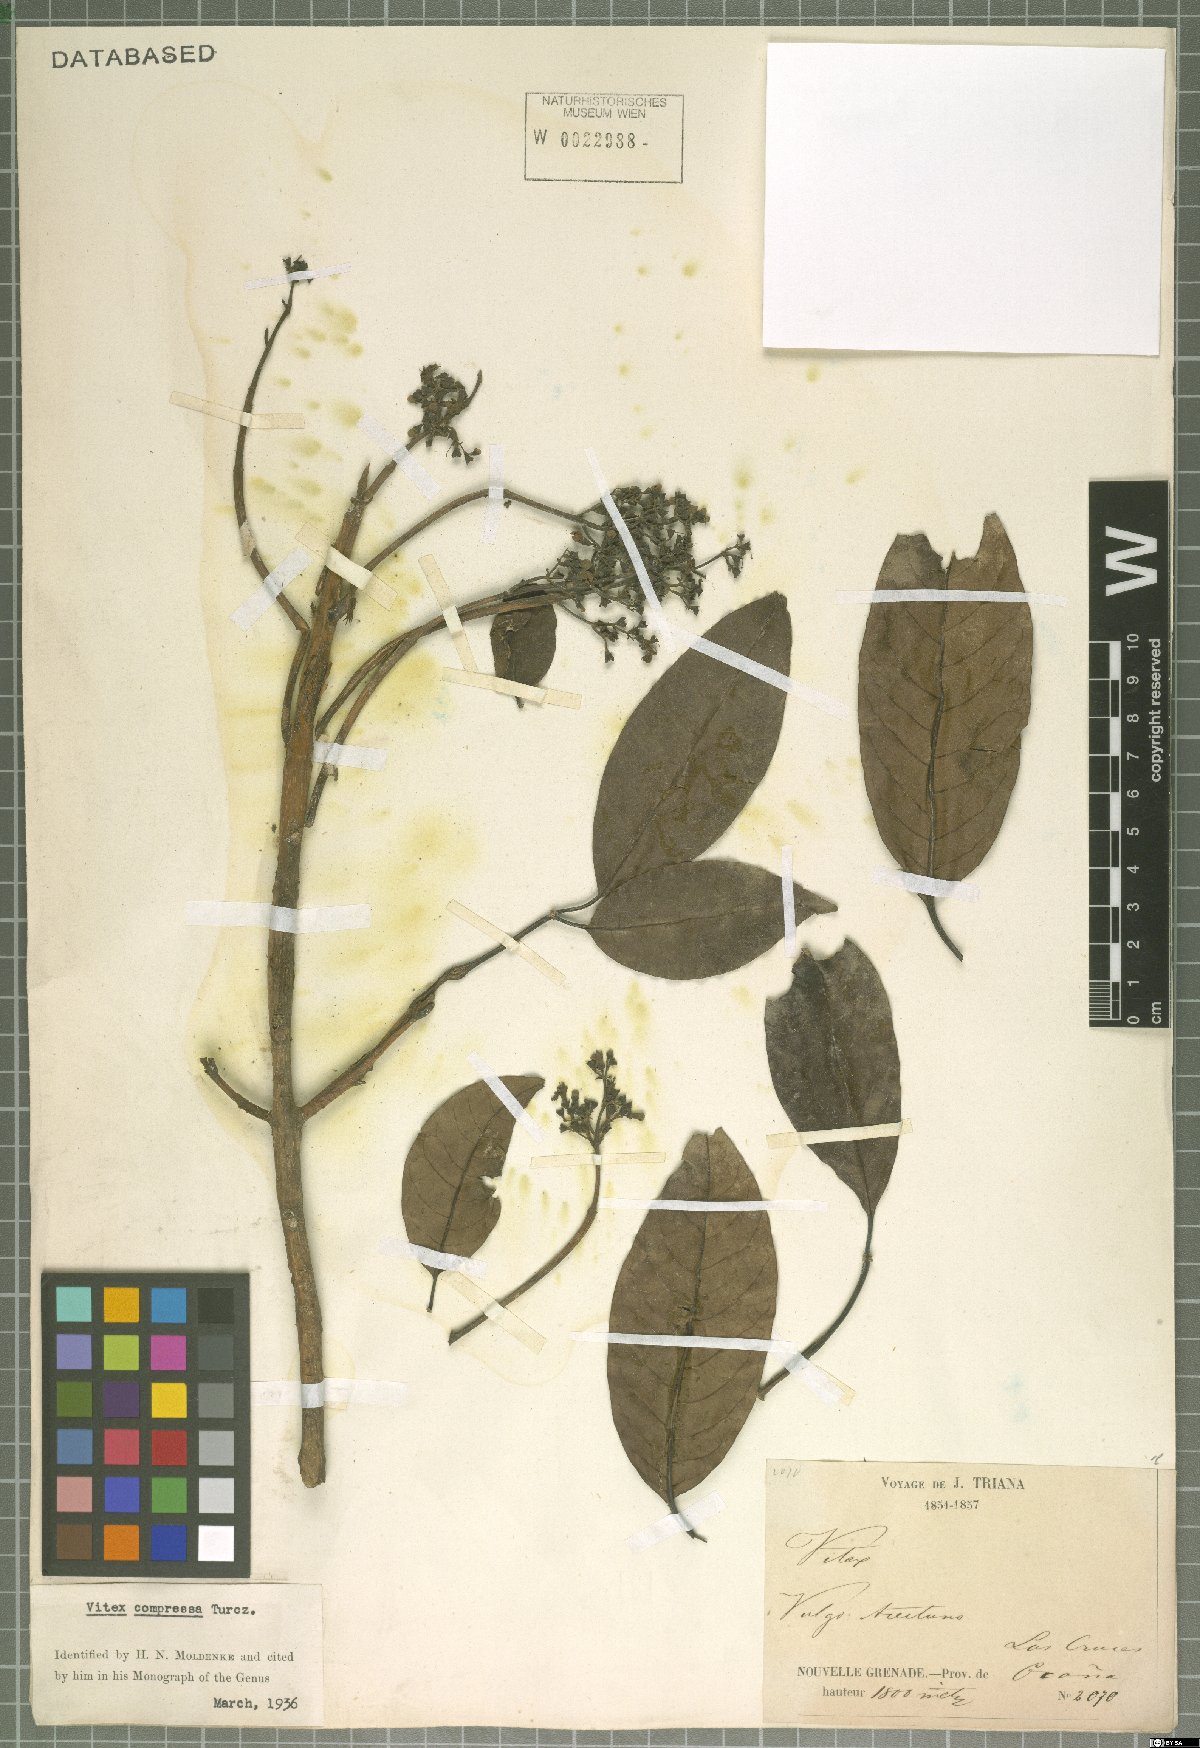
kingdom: Plantae
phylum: Tracheophyta
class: Magnoliopsida
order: Lamiales
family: Lamiaceae
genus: Vitex
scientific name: Vitex compressa
